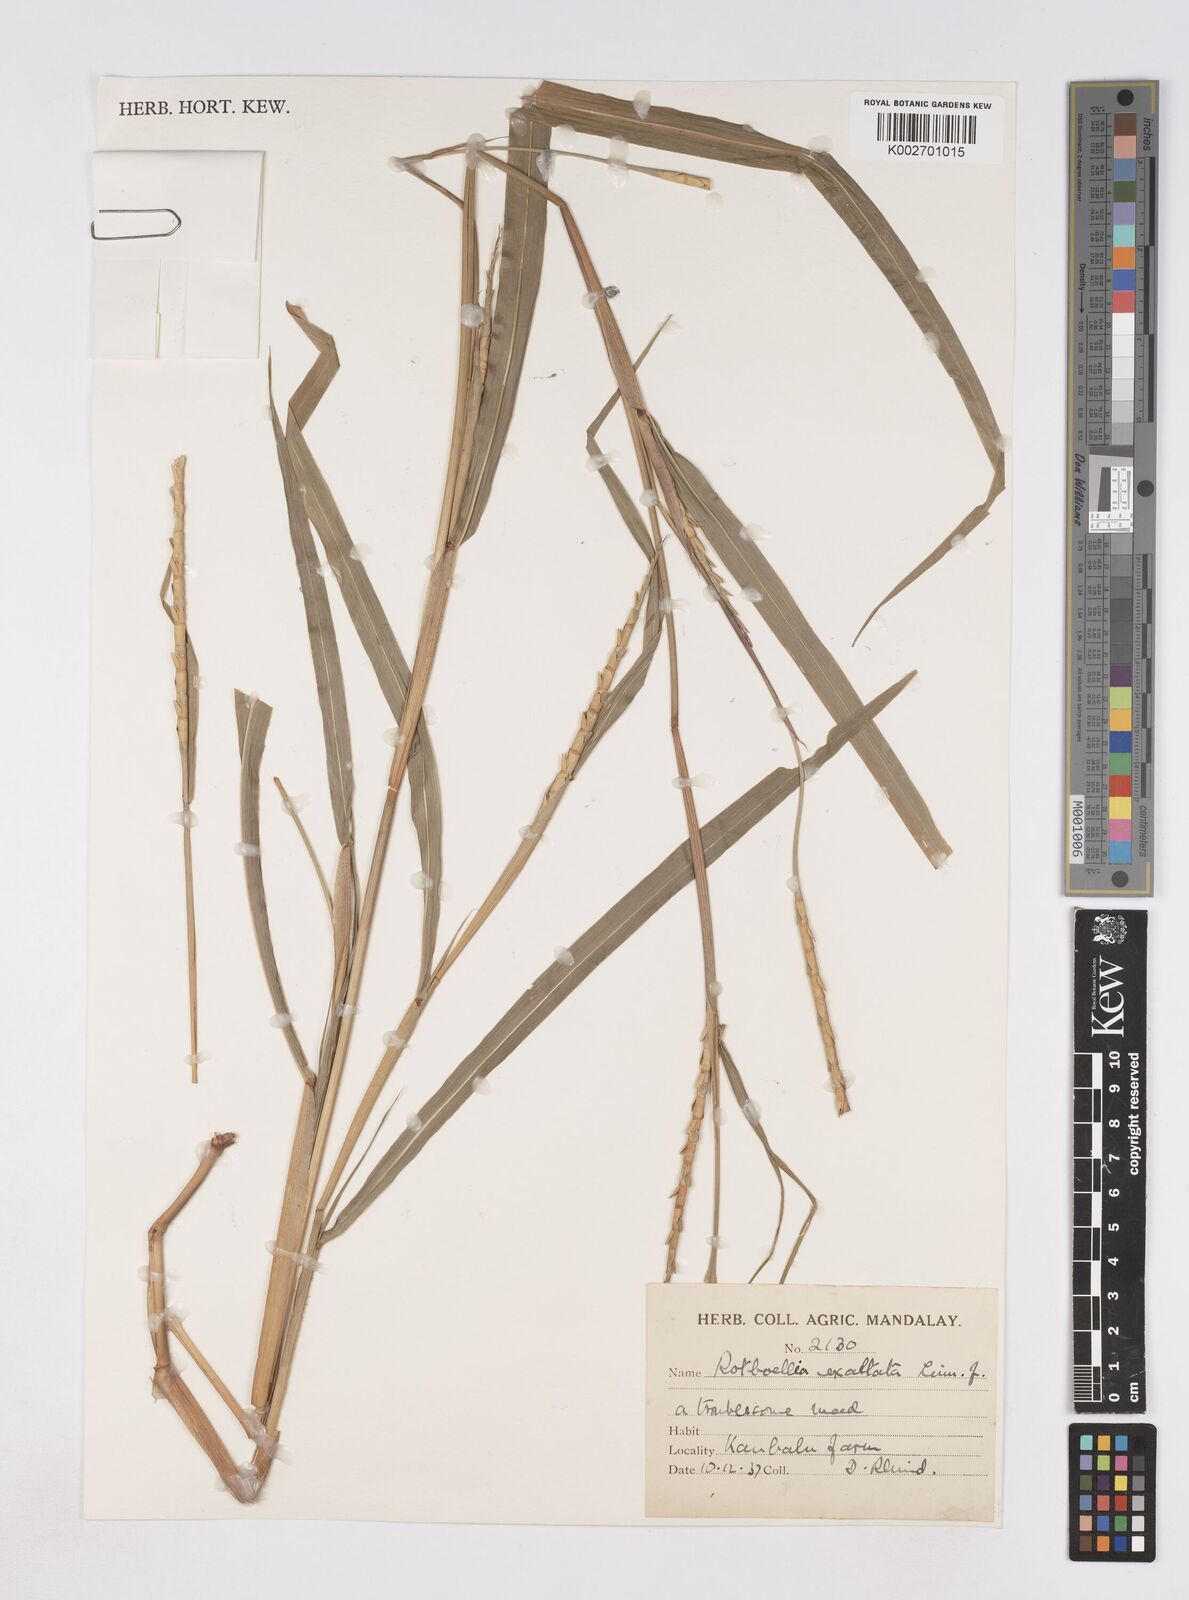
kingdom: Plantae
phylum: Tracheophyta
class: Liliopsida
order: Poales
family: Poaceae
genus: Ophiuros
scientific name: Ophiuros exaltatus
